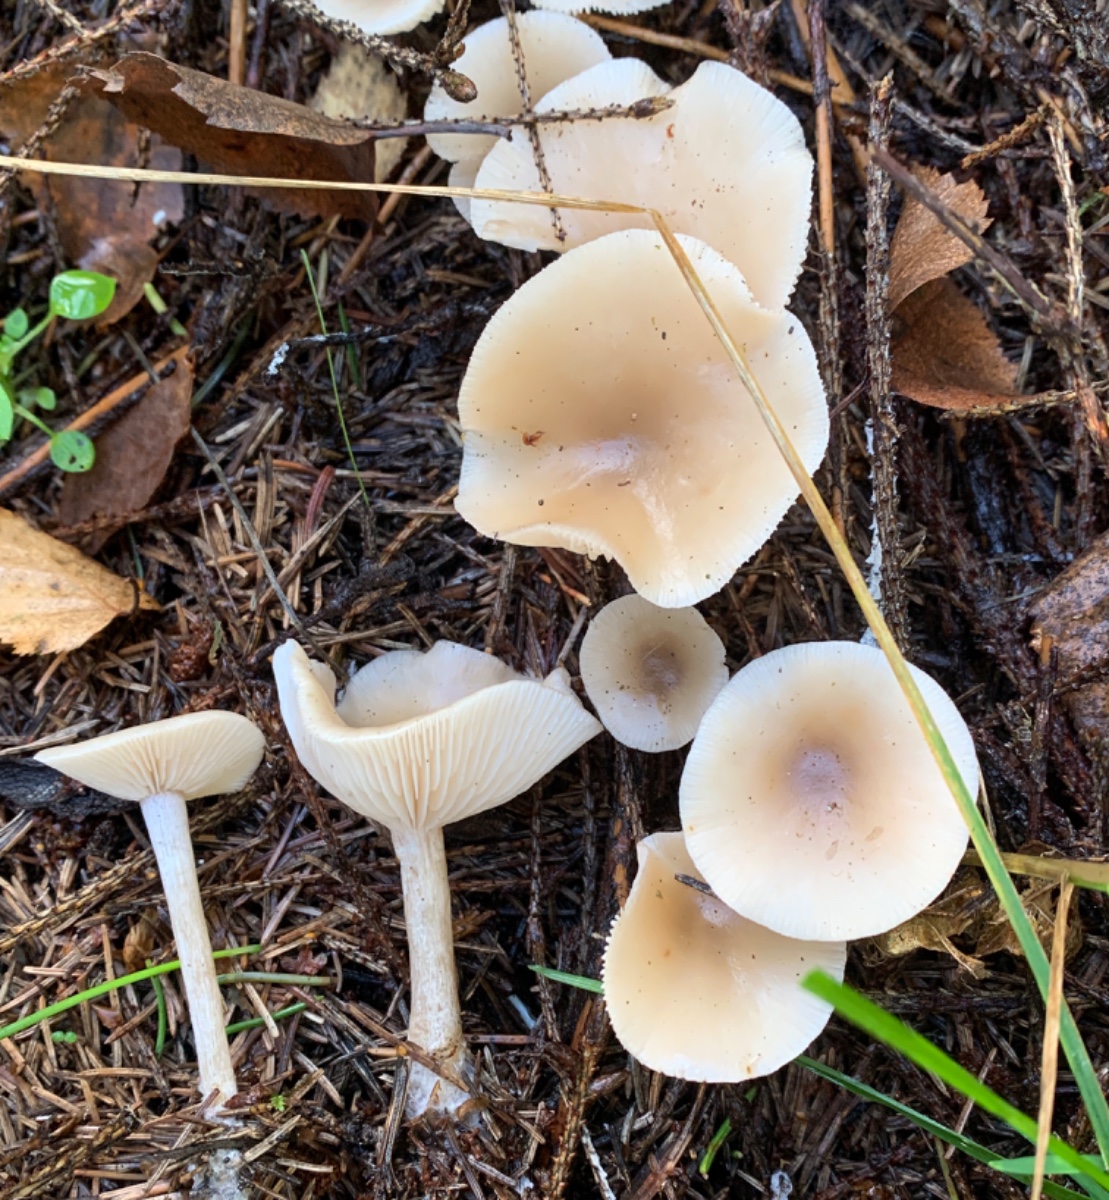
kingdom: Fungi
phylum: Basidiomycota
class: Agaricomycetes
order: Agaricales
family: Tricholomataceae
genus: Clitocybe
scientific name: Clitocybe fragrans
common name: vellugtende tragthat
